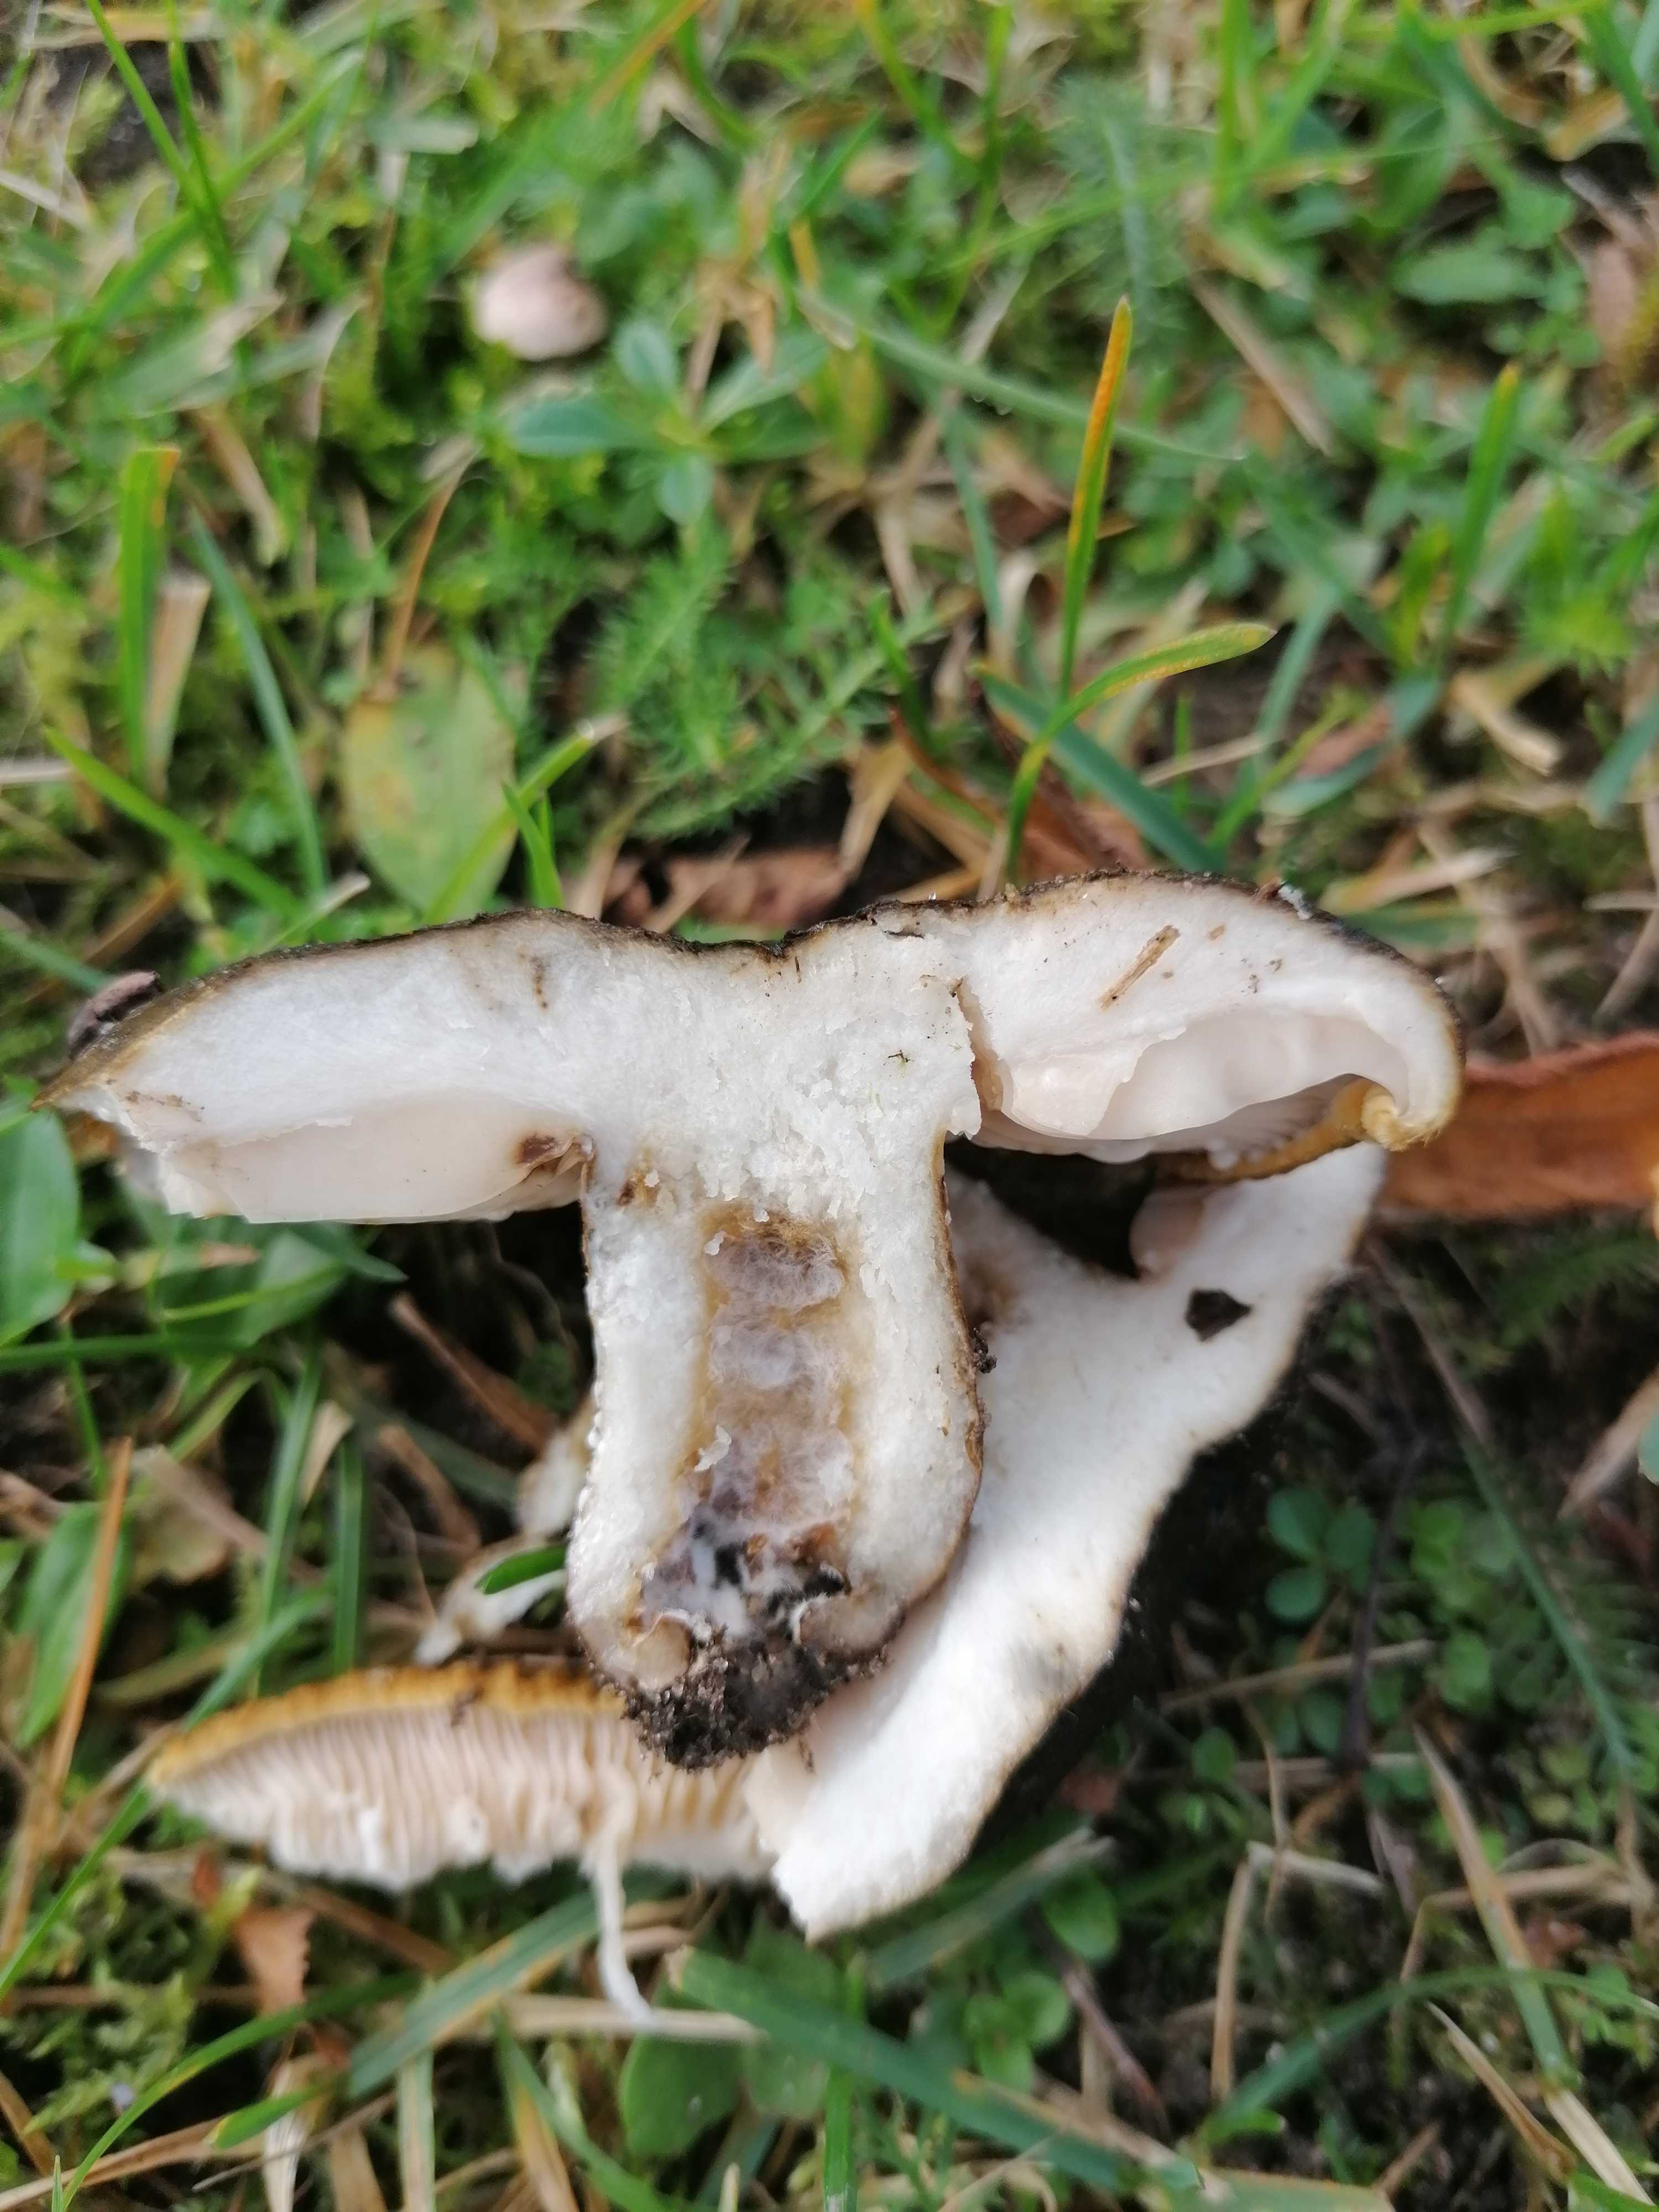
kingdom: Fungi
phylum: Basidiomycota
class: Agaricomycetes
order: Russulales
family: Russulaceae
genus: Lactarius
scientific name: Lactarius necator
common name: manddraber-mælkehat
